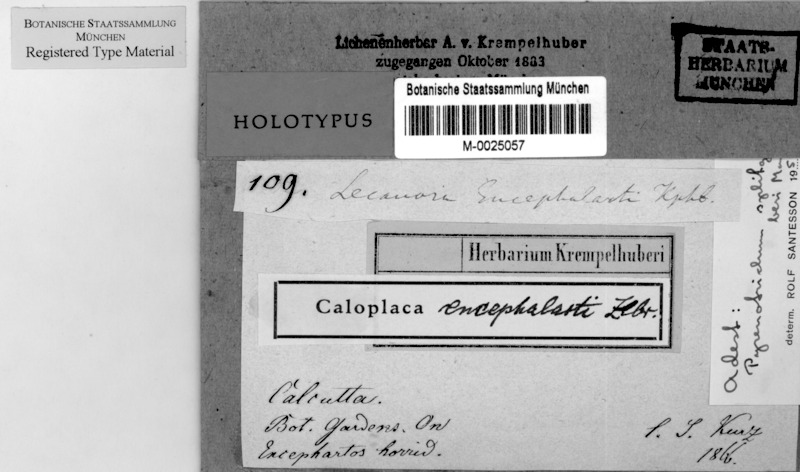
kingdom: Fungi
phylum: Ascomycota
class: Lecanoromycetes
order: Teloschistales
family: Teloschistaceae
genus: Caloplaca
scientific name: Caloplaca
